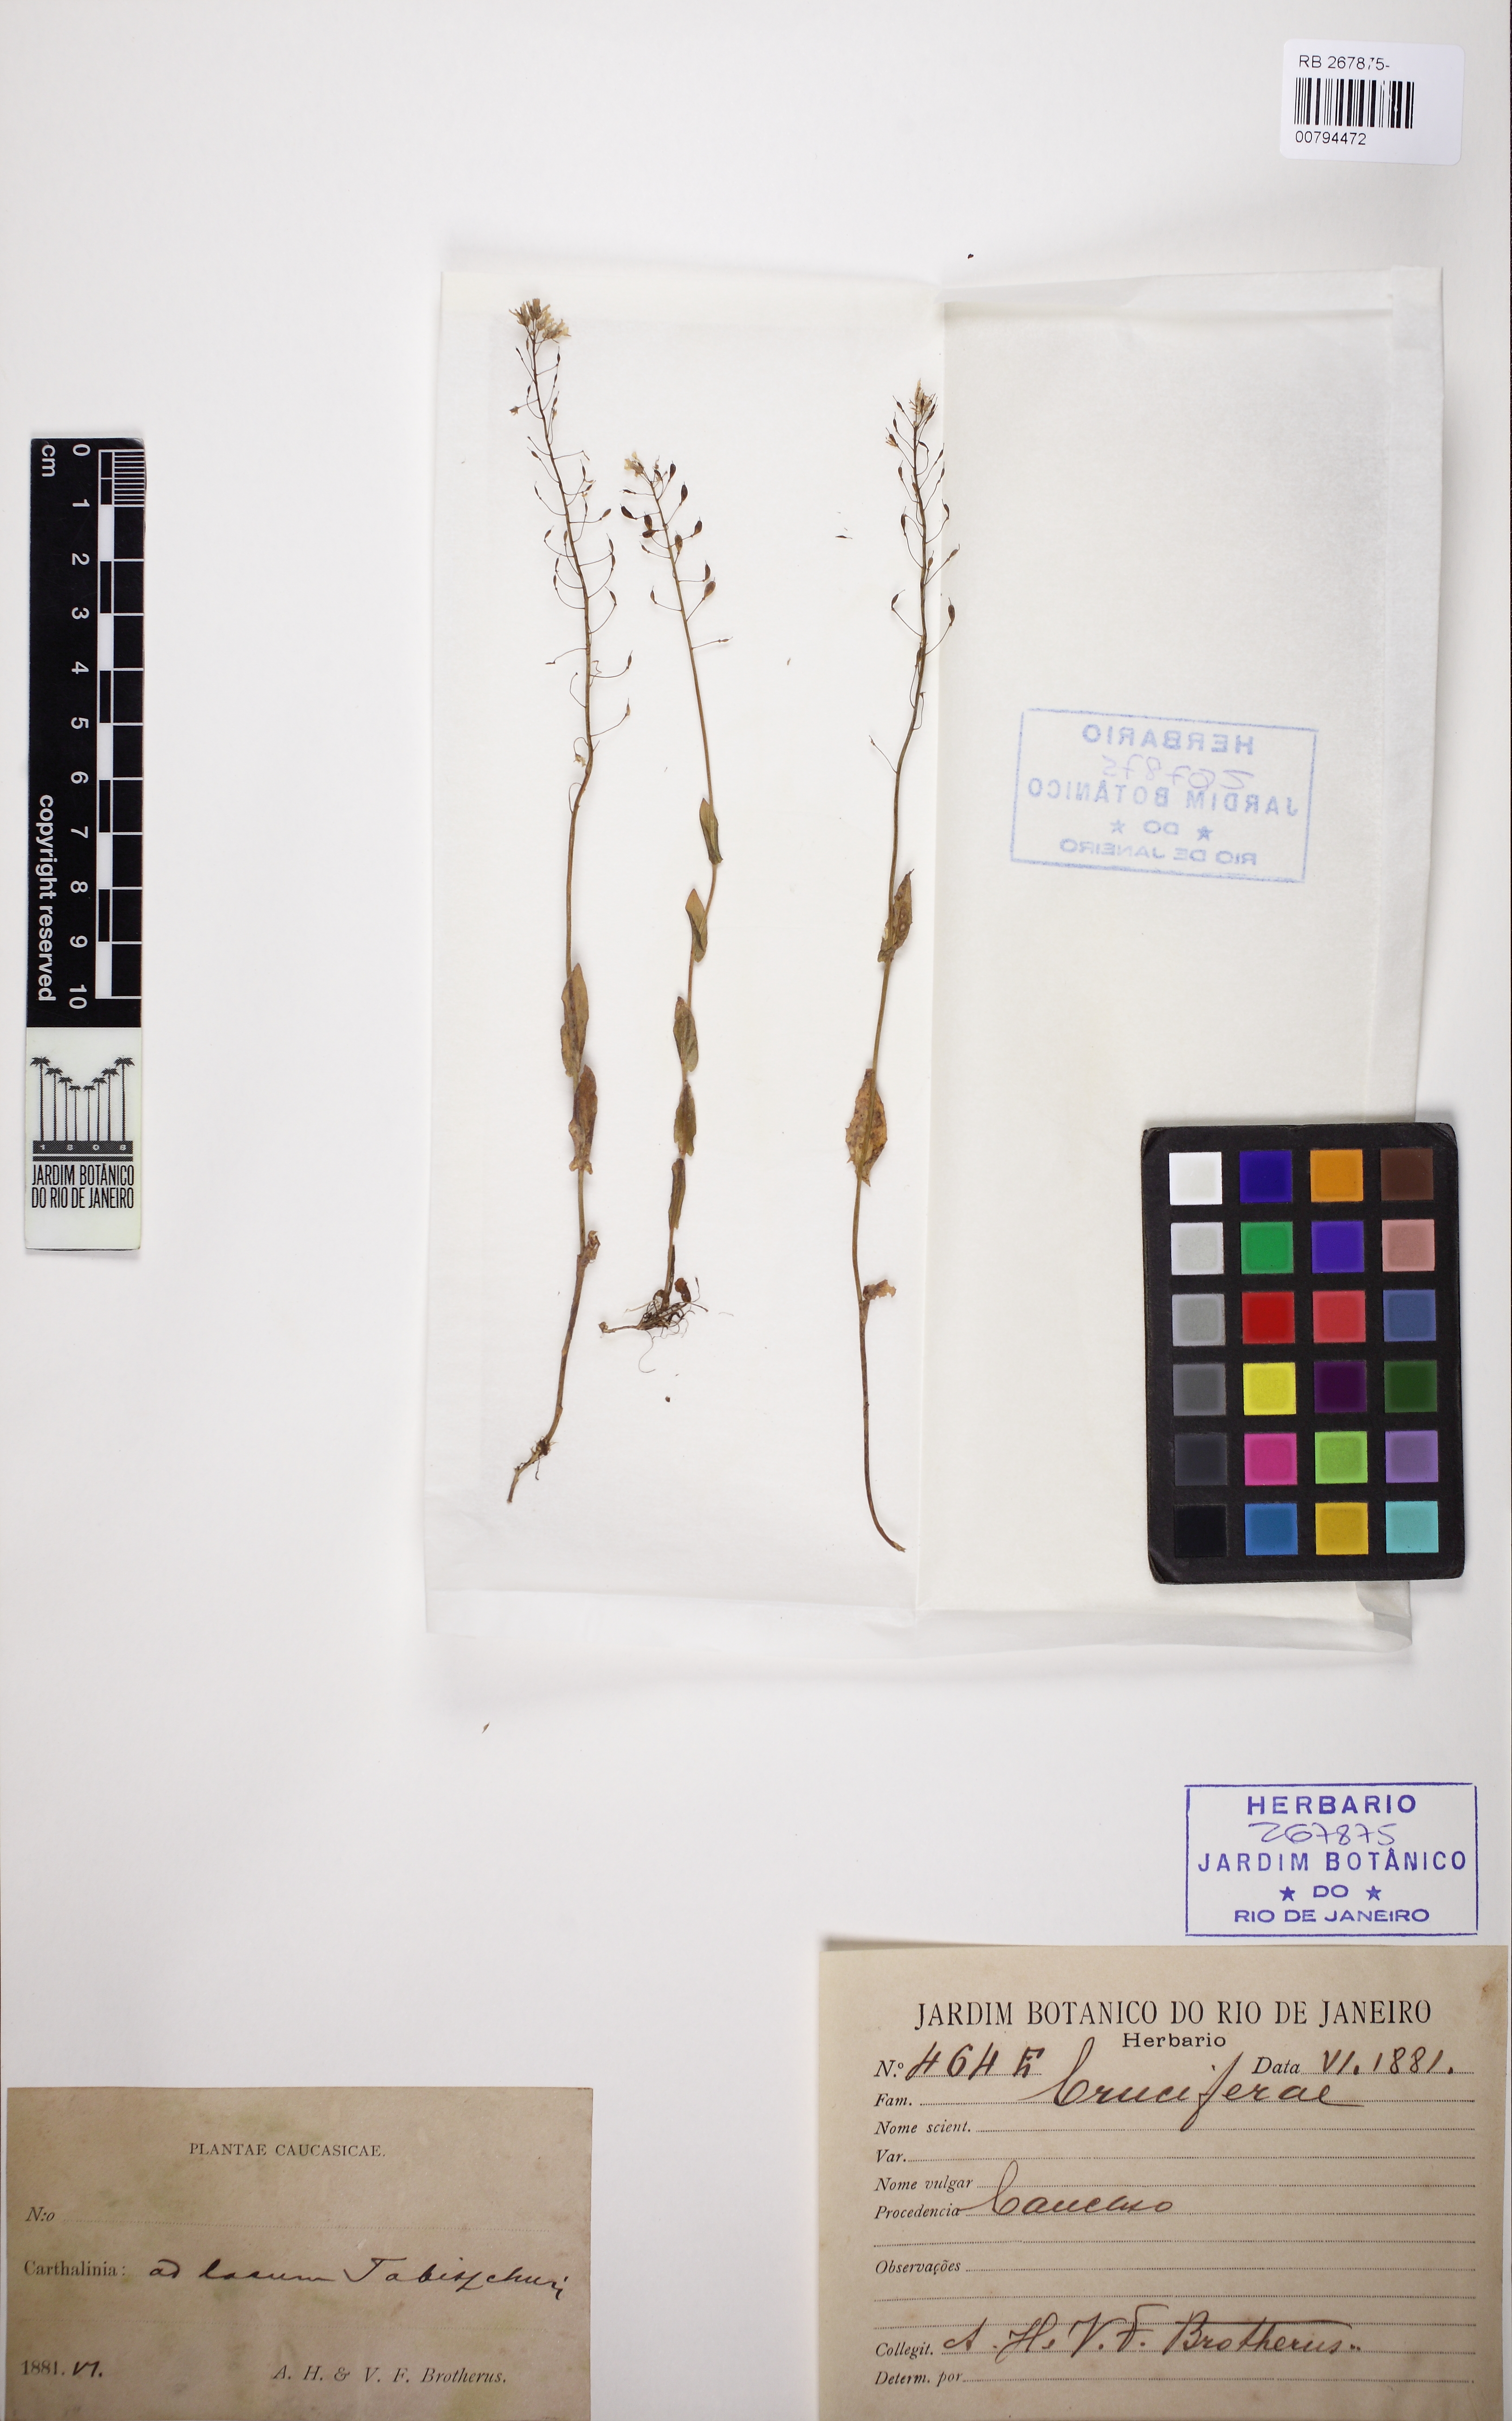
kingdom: Plantae
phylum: Tracheophyta
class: Magnoliopsida
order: Brassicales
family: Brassicaceae
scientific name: Brassicaceae
